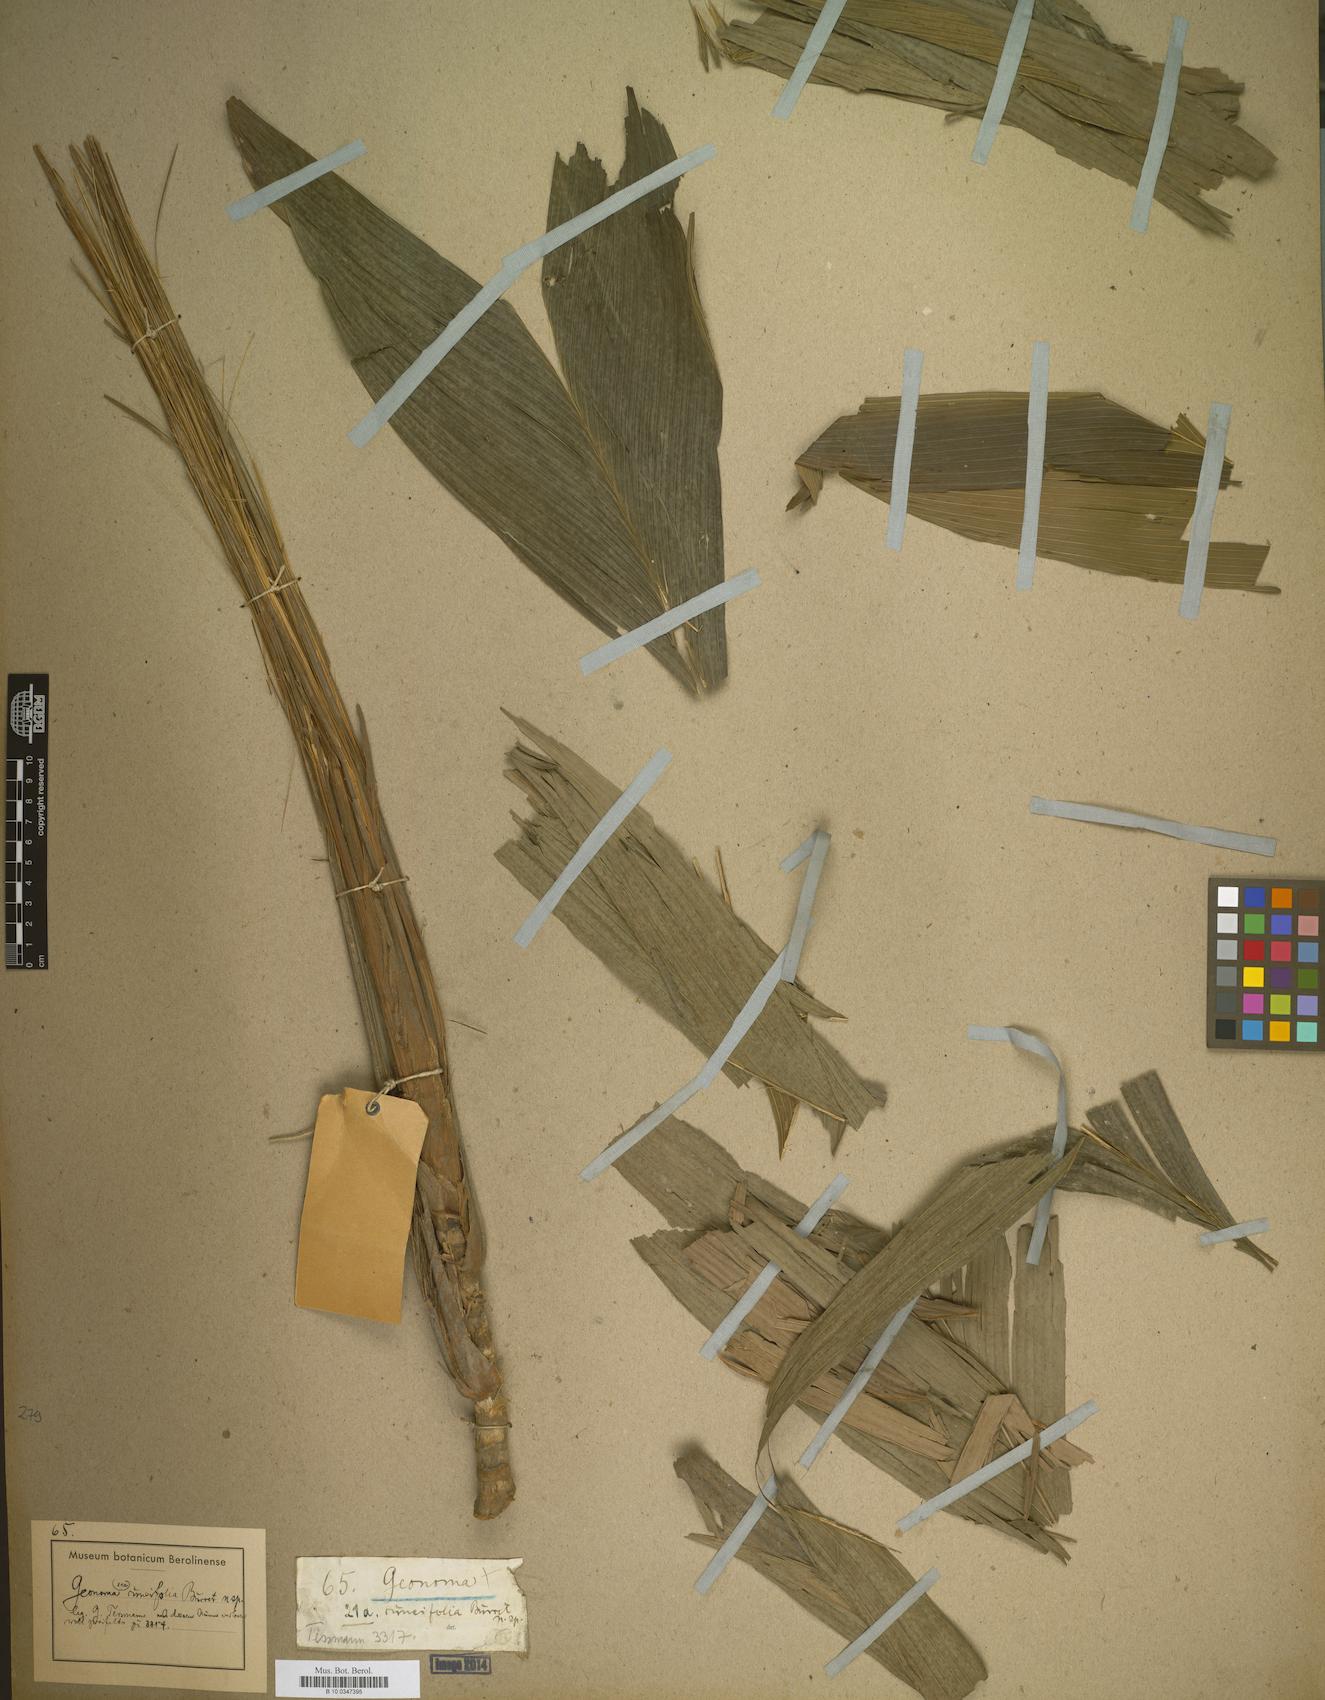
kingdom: Plantae
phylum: Tracheophyta
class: Liliopsida
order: Arecales
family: Arecaceae
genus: Geonoma
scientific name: Geonoma
